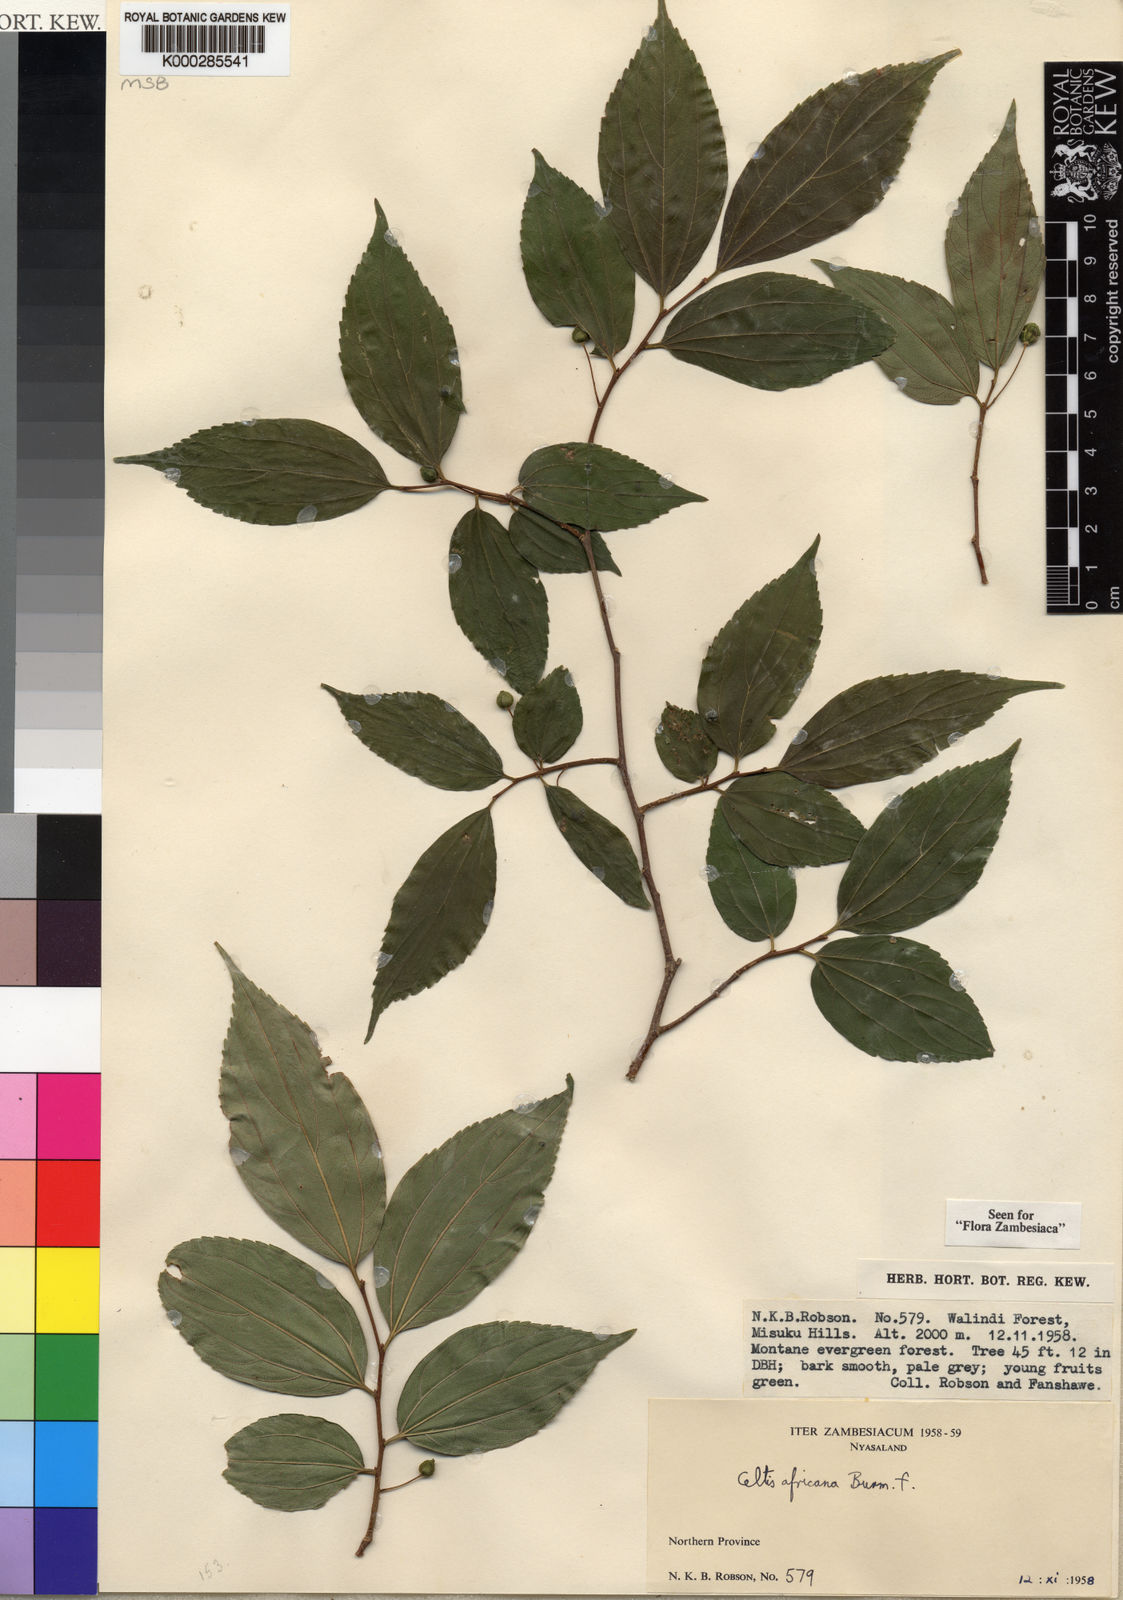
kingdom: Plantae
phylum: Tracheophyta
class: Magnoliopsida
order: Rosales
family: Cannabaceae
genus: Celtis
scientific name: Celtis africana
